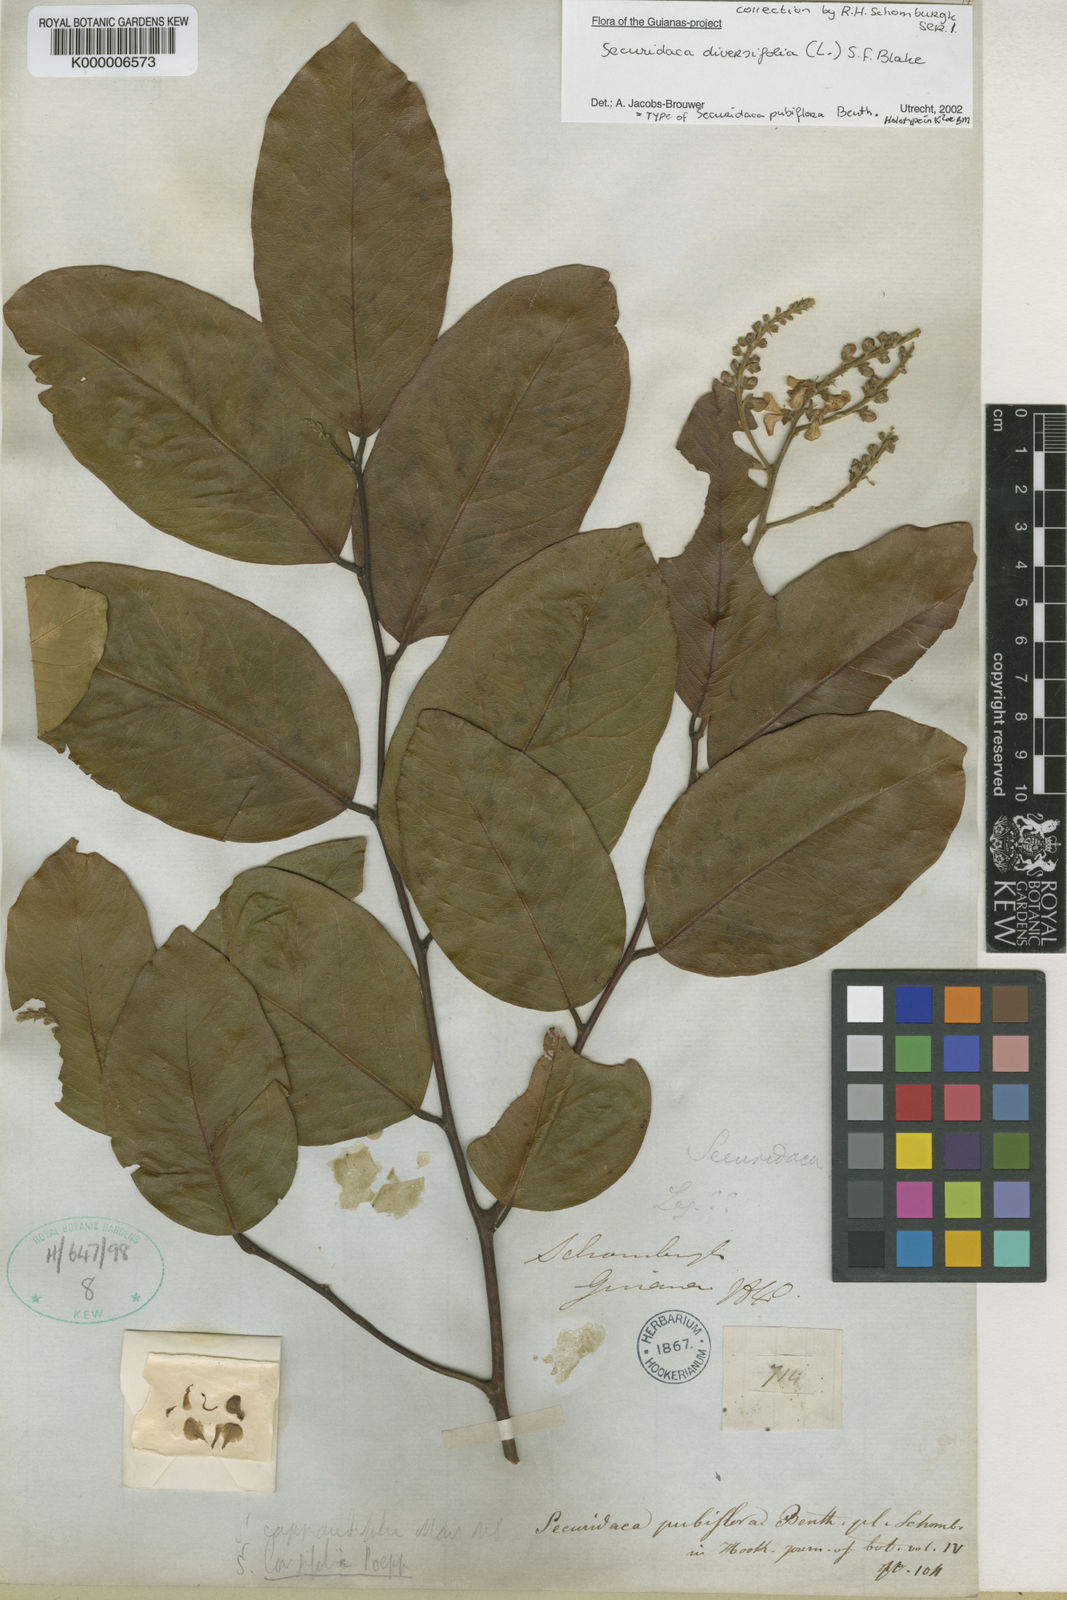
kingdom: Plantae
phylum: Tracheophyta
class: Magnoliopsida
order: Fabales
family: Polygalaceae
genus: Securidaca
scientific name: Securidaca diversifolia
